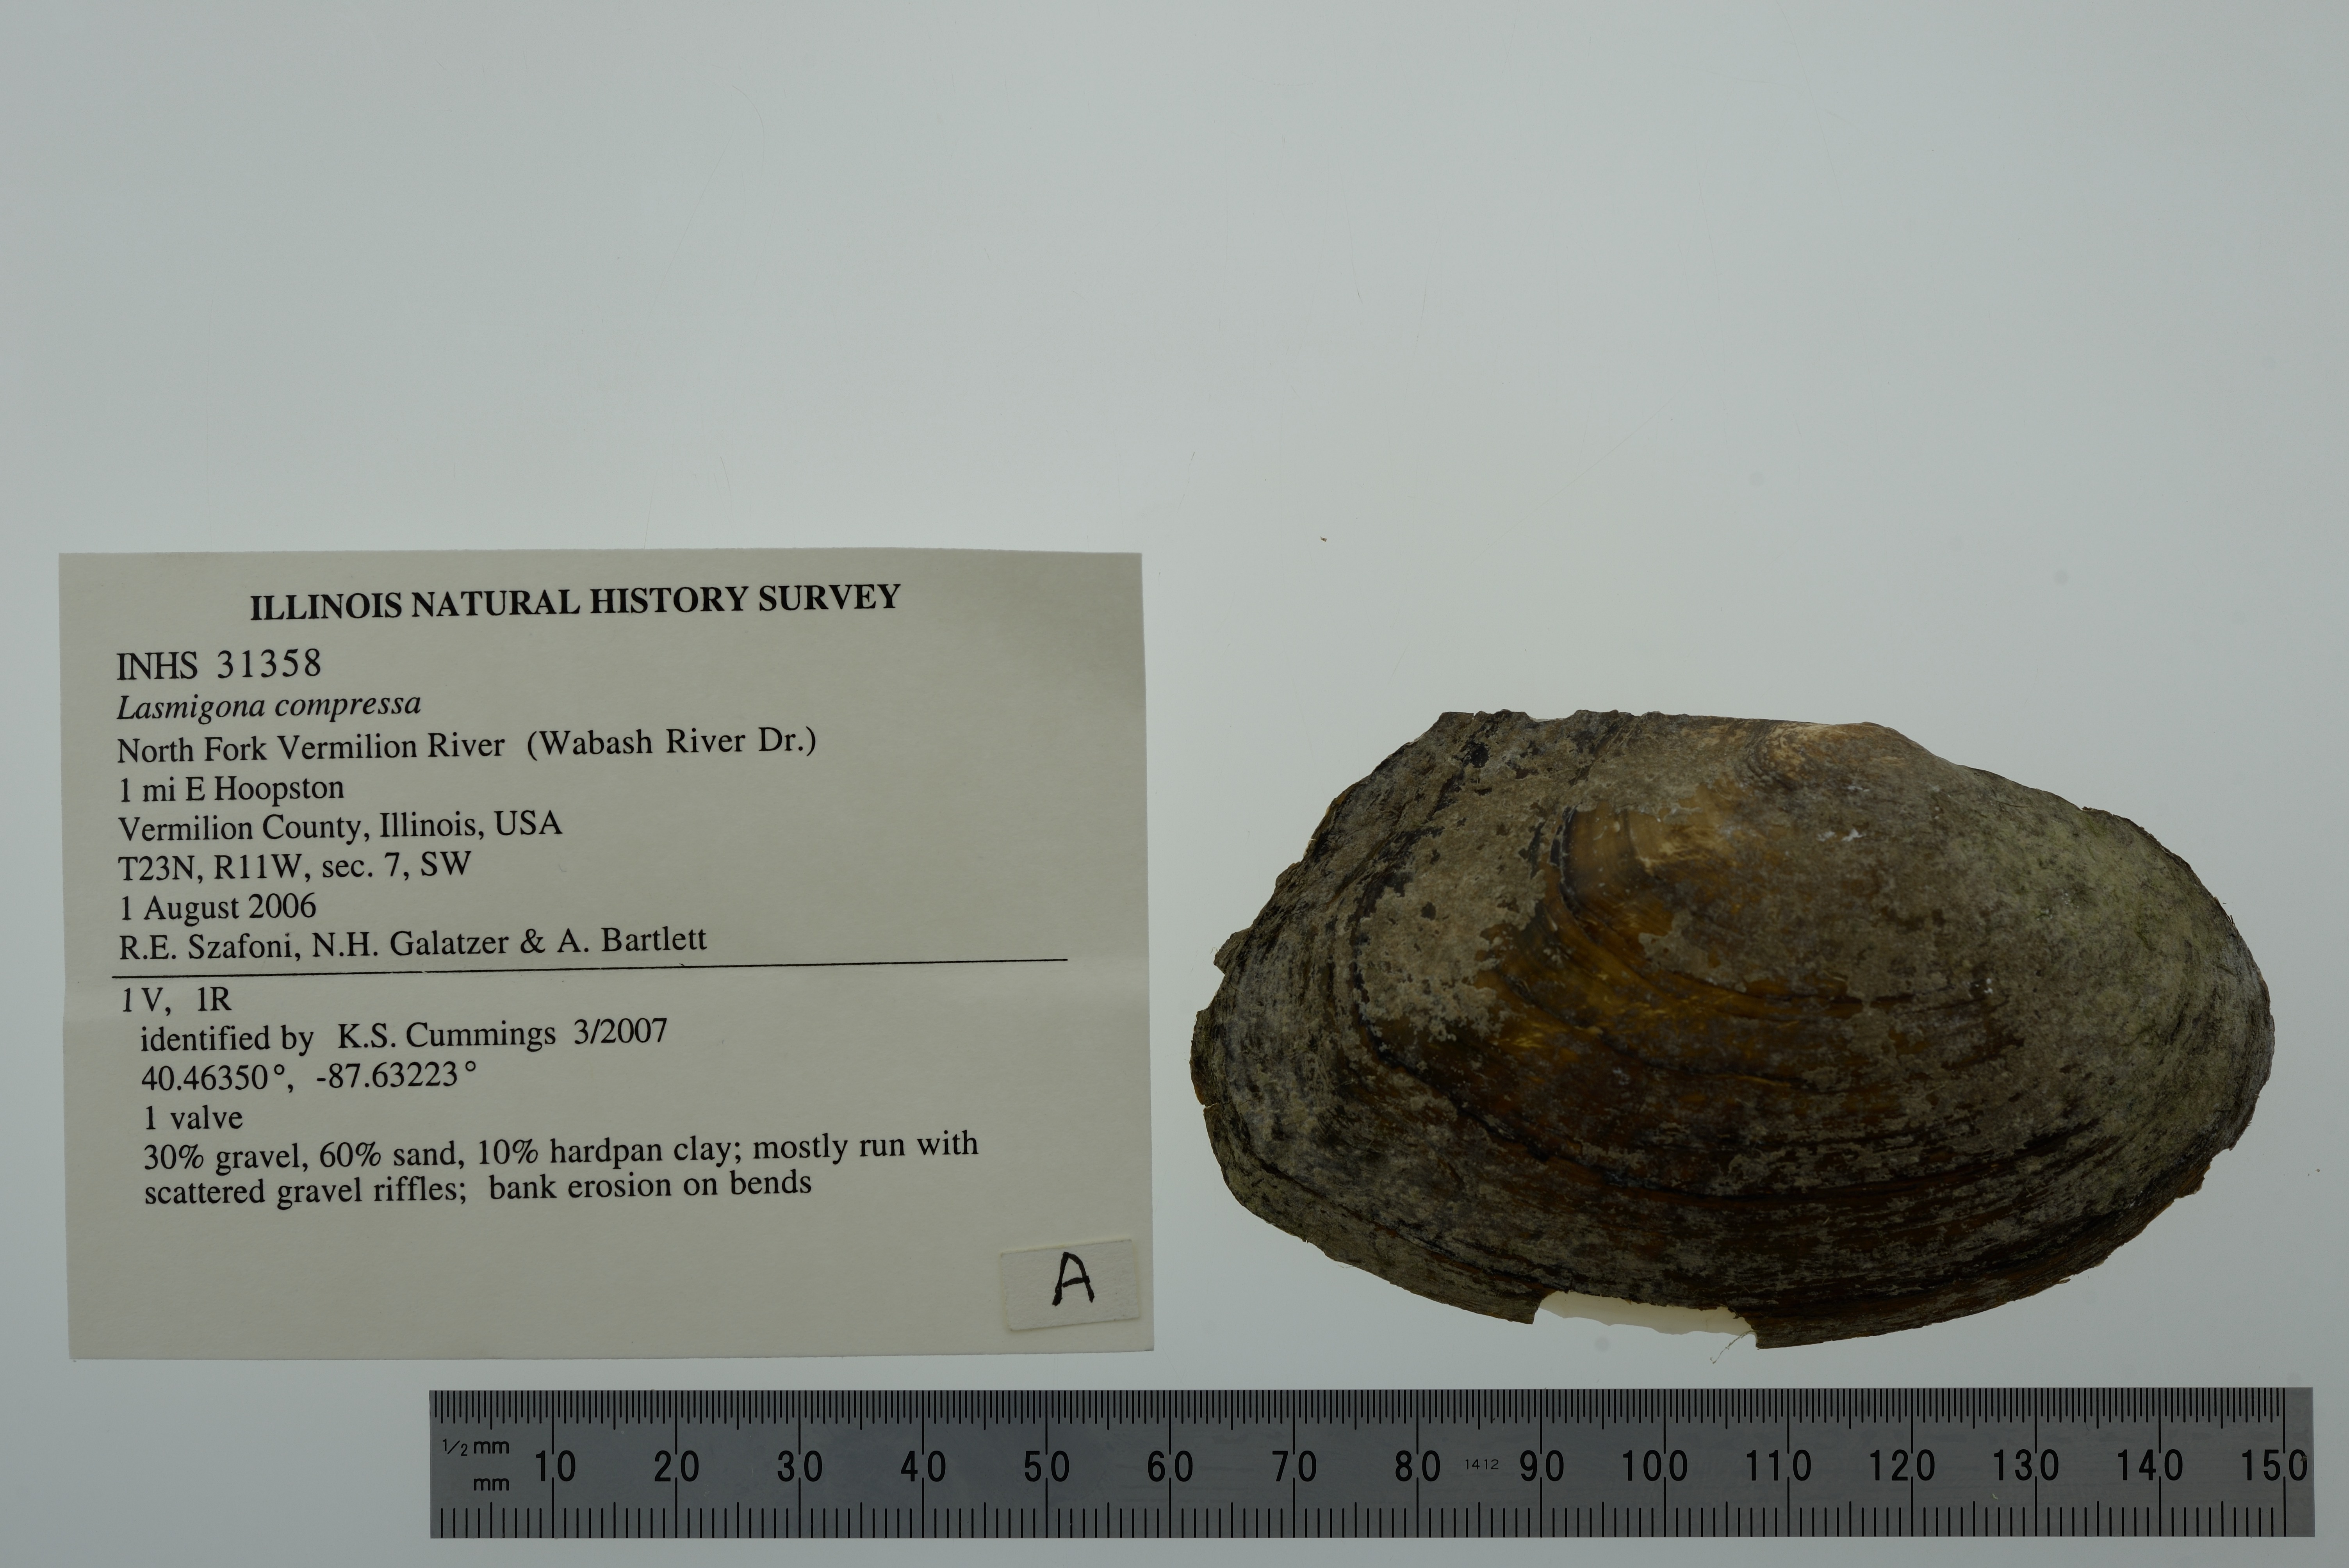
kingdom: Animalia
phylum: Mollusca
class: Bivalvia
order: Unionida
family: Unionidae
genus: Lasmigona
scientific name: Lasmigona compressa
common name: Creek heelsplitter
